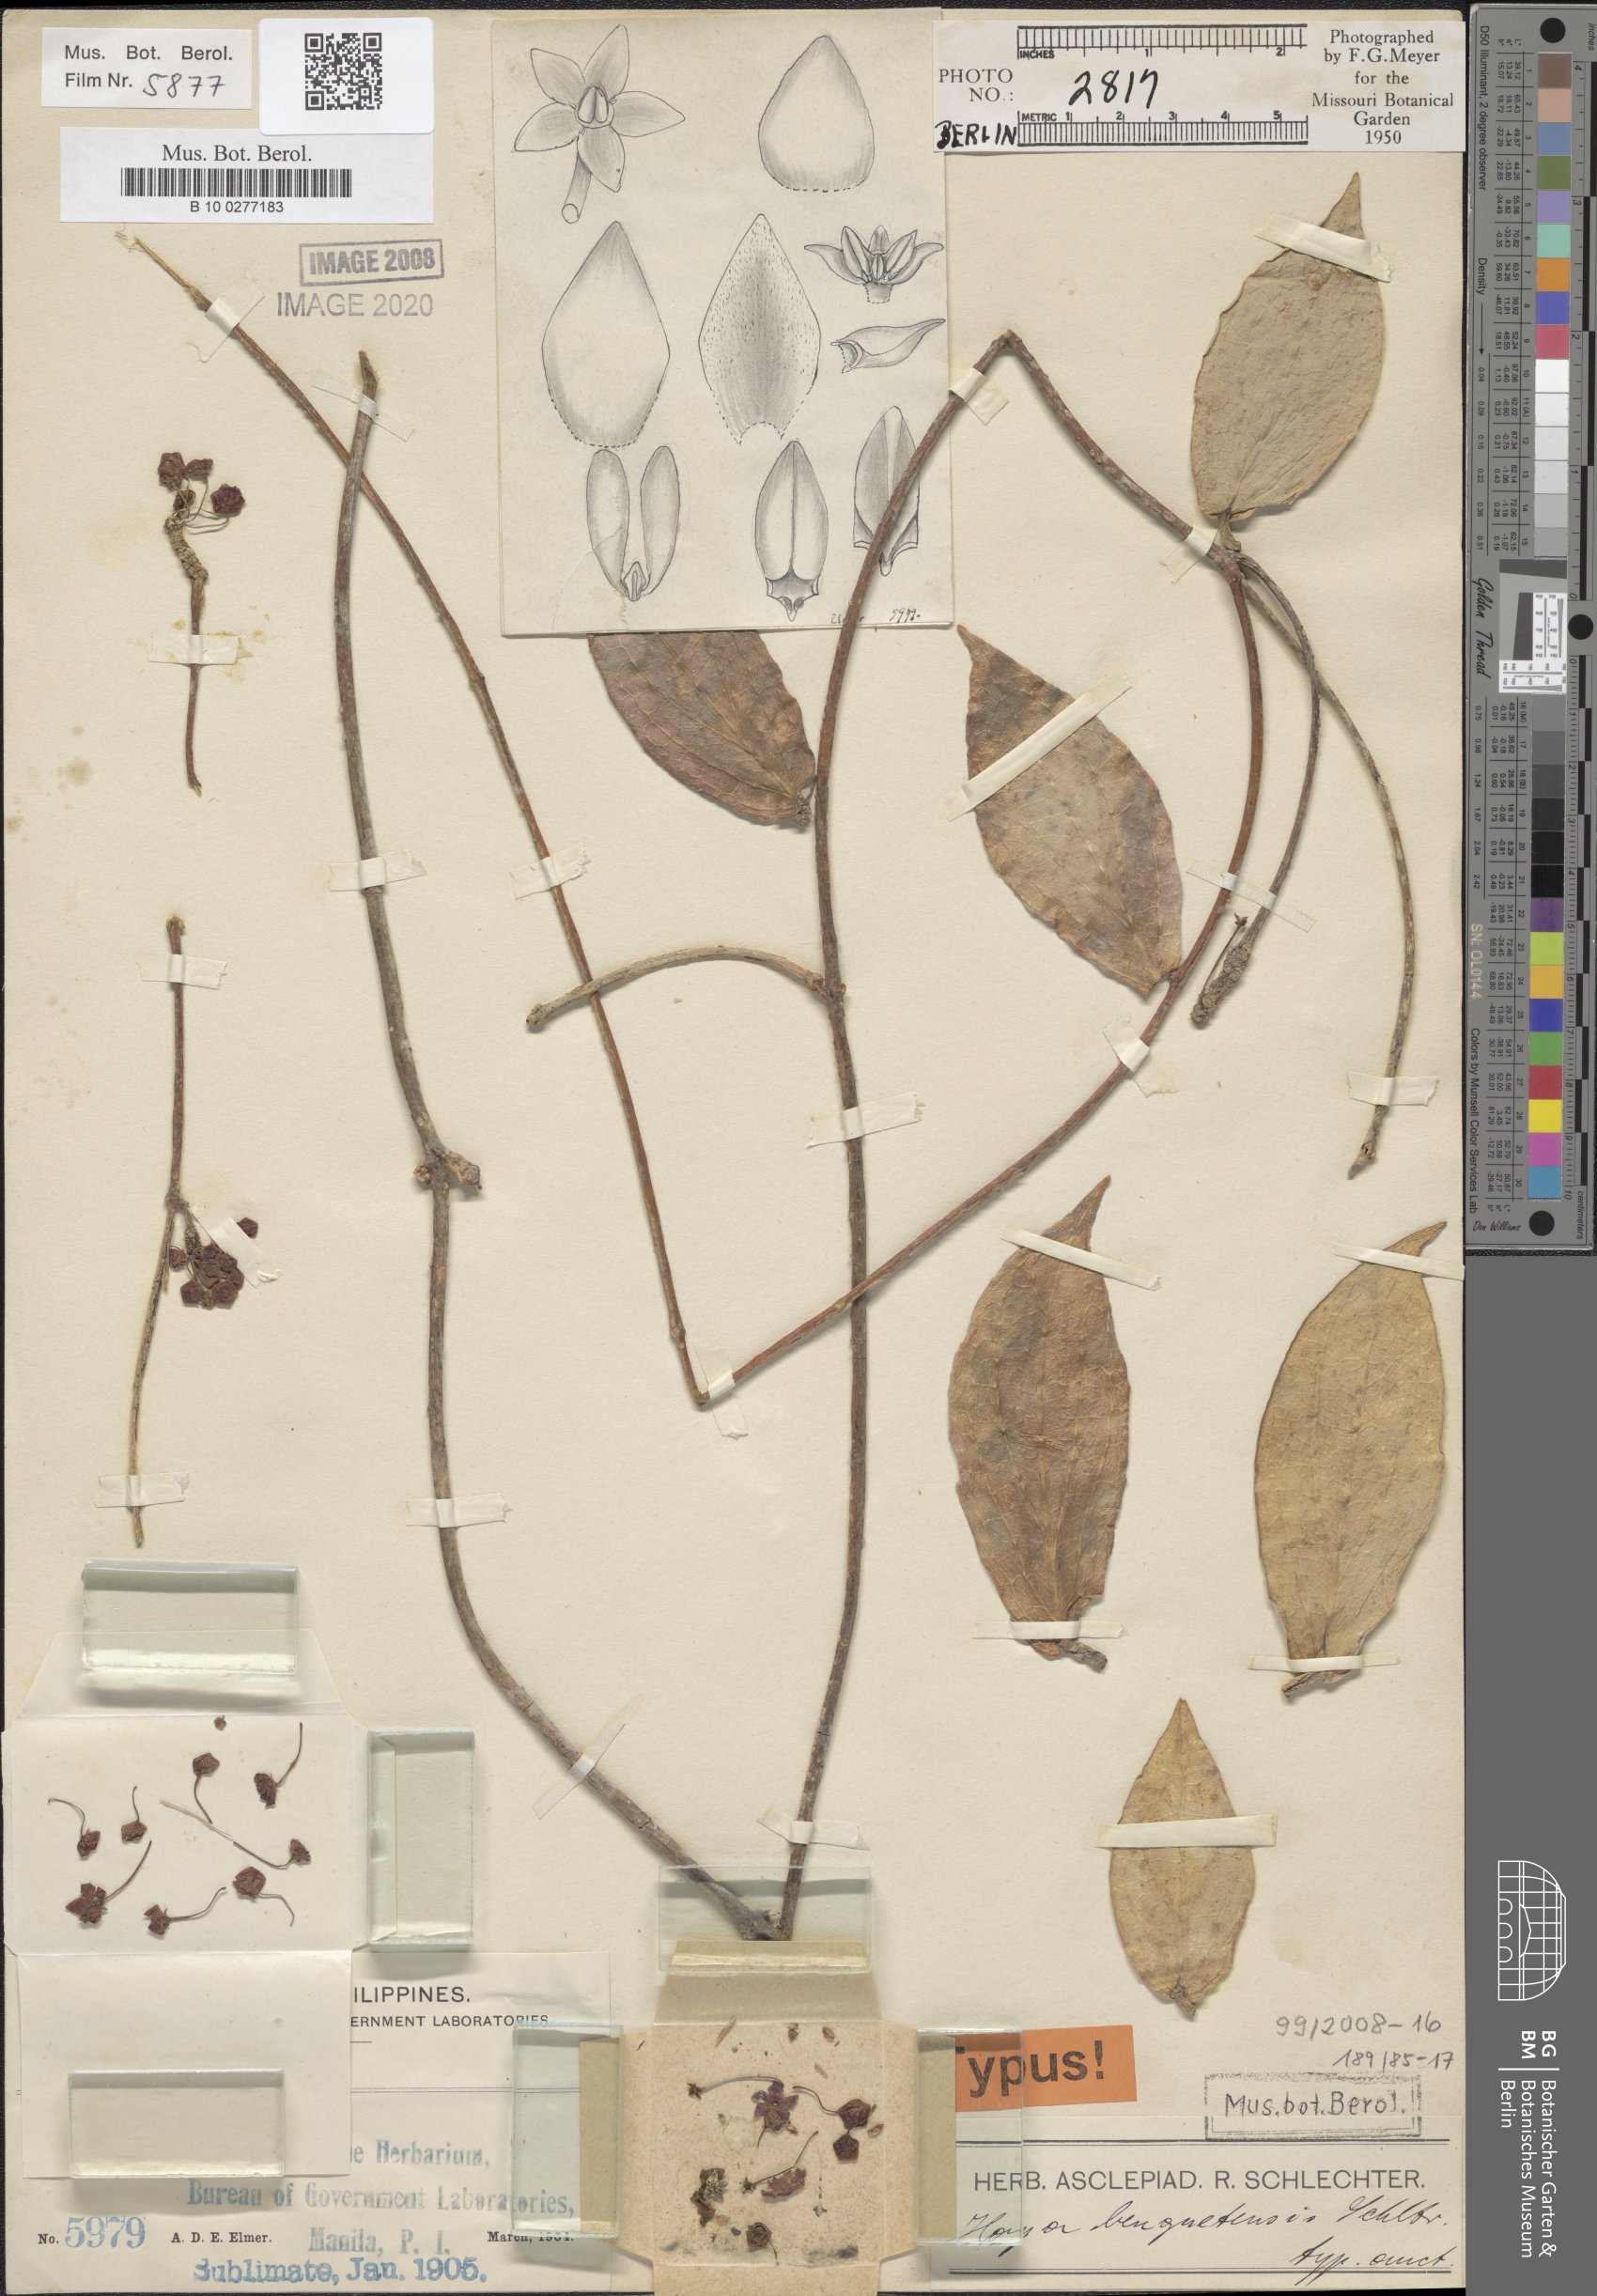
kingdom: Plantae
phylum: Tracheophyta
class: Magnoliopsida
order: Gentianales
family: Apocynaceae
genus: Hoya
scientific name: Hoya benguetensis
